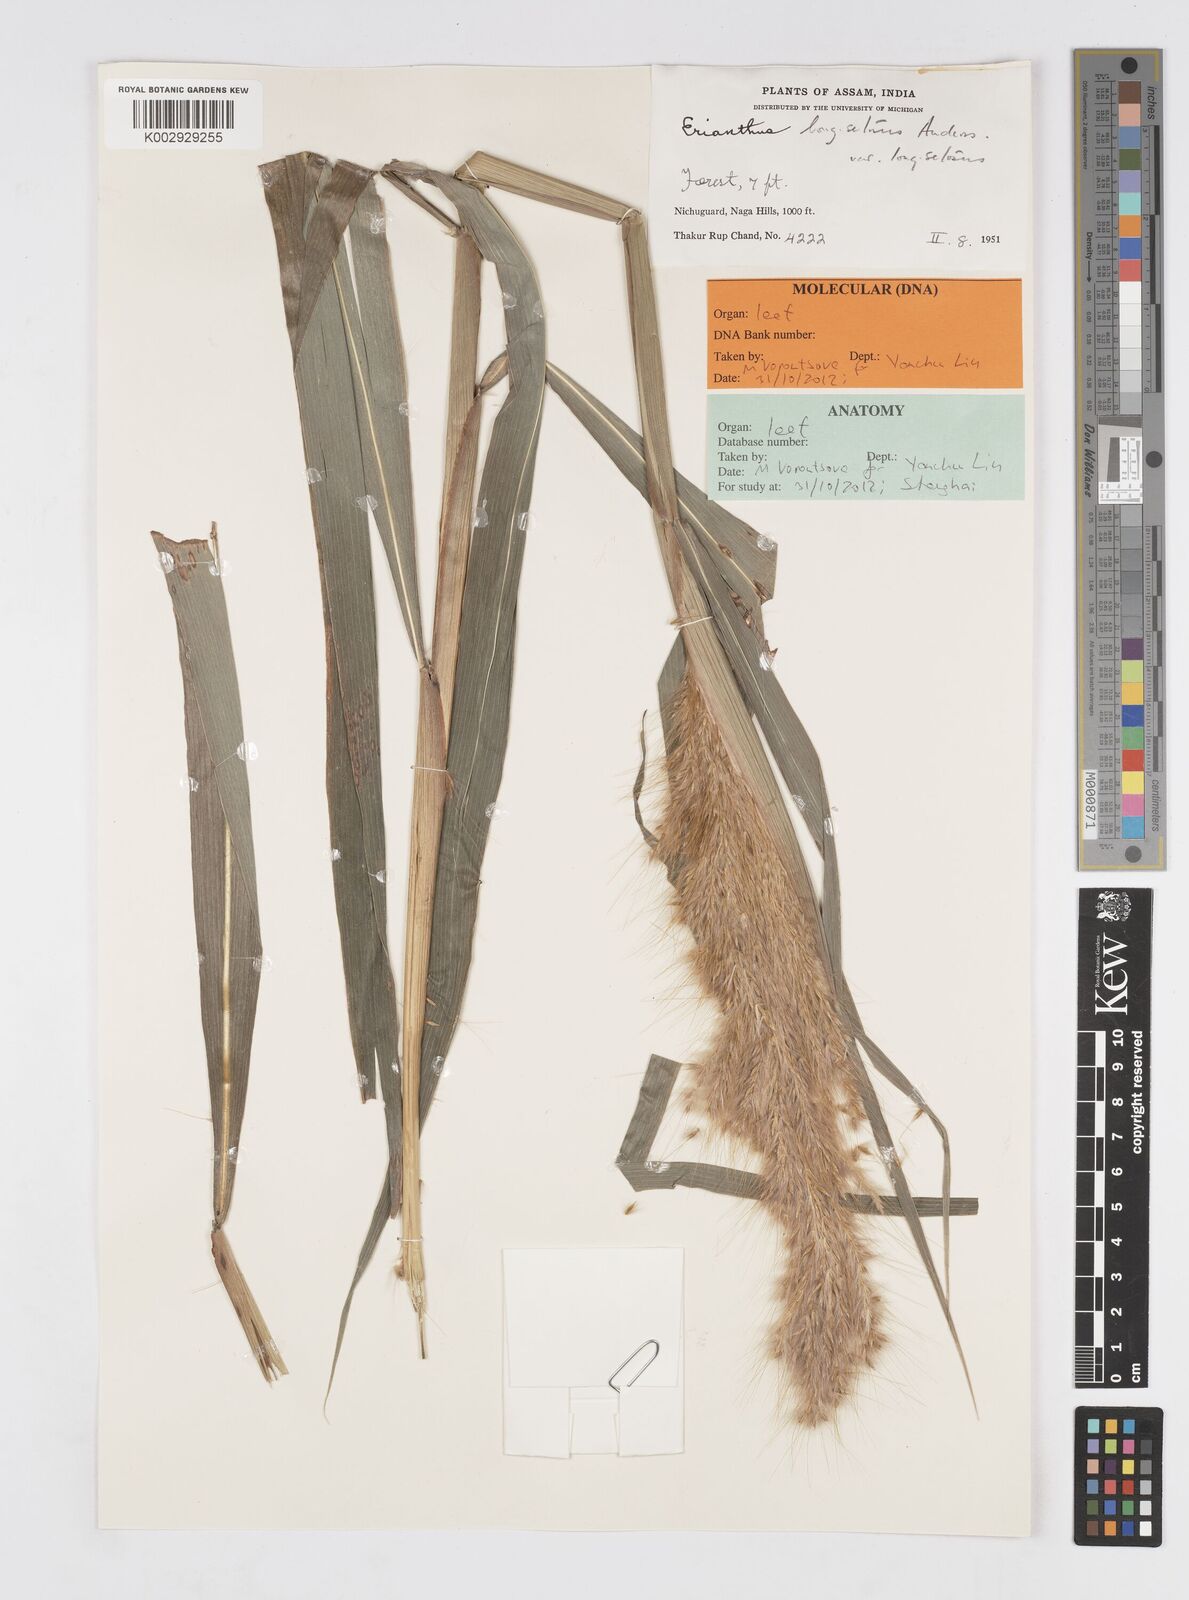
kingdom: Plantae
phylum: Tracheophyta
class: Liliopsida
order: Poales
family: Poaceae
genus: Saccharum
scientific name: Saccharum
